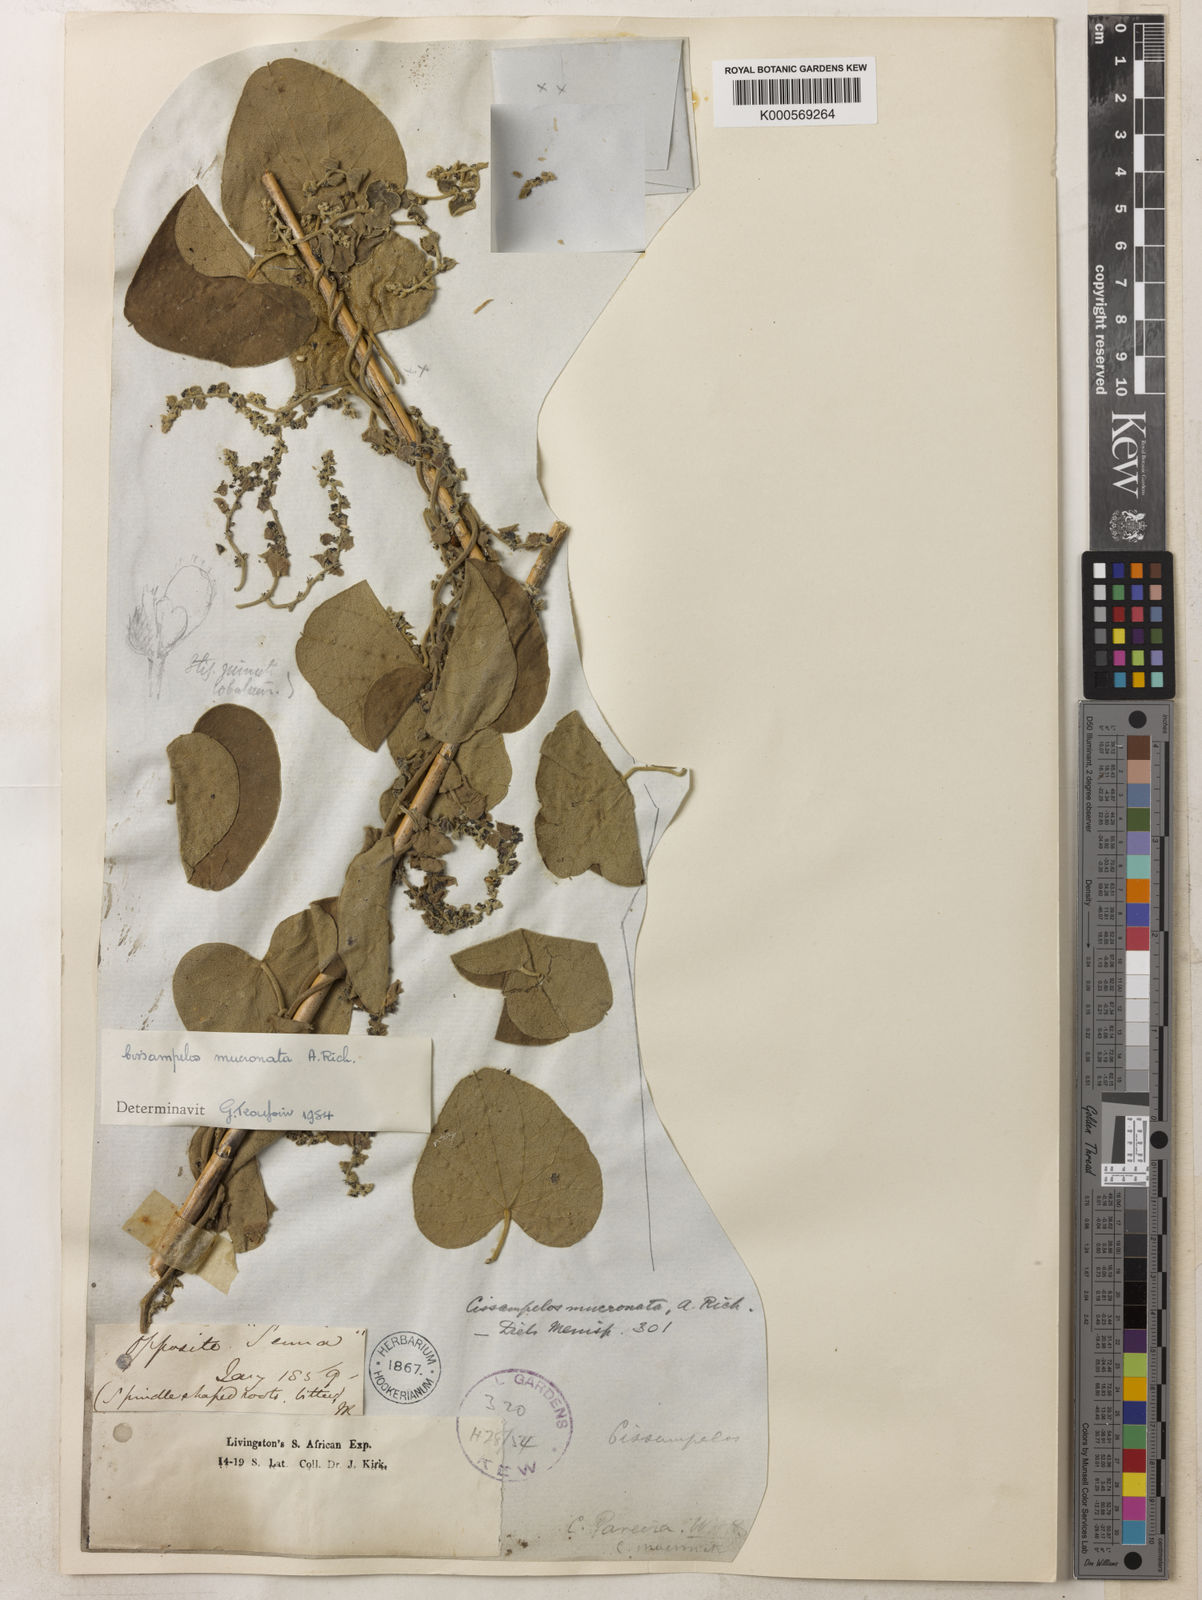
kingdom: Plantae
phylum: Tracheophyta
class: Magnoliopsida
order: Ranunculales
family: Menispermaceae
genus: Cissampelos
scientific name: Cissampelos mucronata
